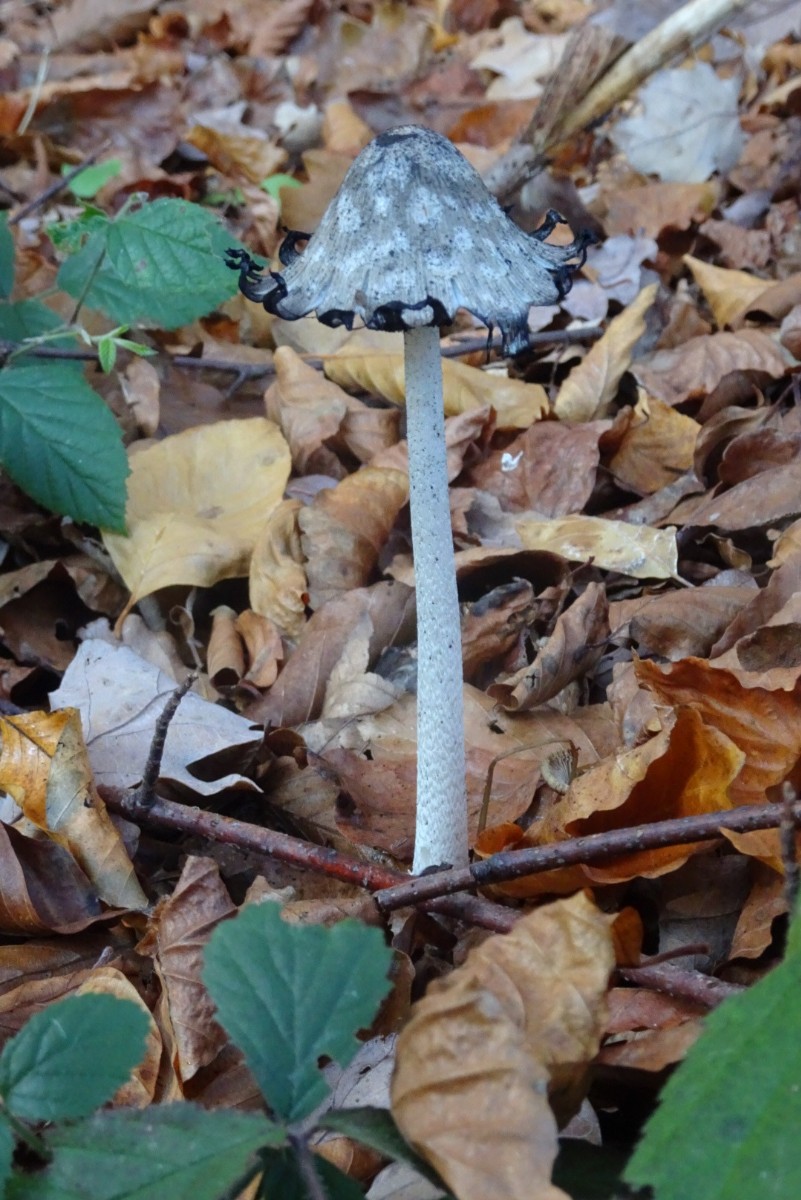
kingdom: Fungi
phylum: Basidiomycota
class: Agaricomycetes
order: Agaricales
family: Psathyrellaceae
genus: Coprinopsis
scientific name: Coprinopsis picacea
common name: skade-blækhat
